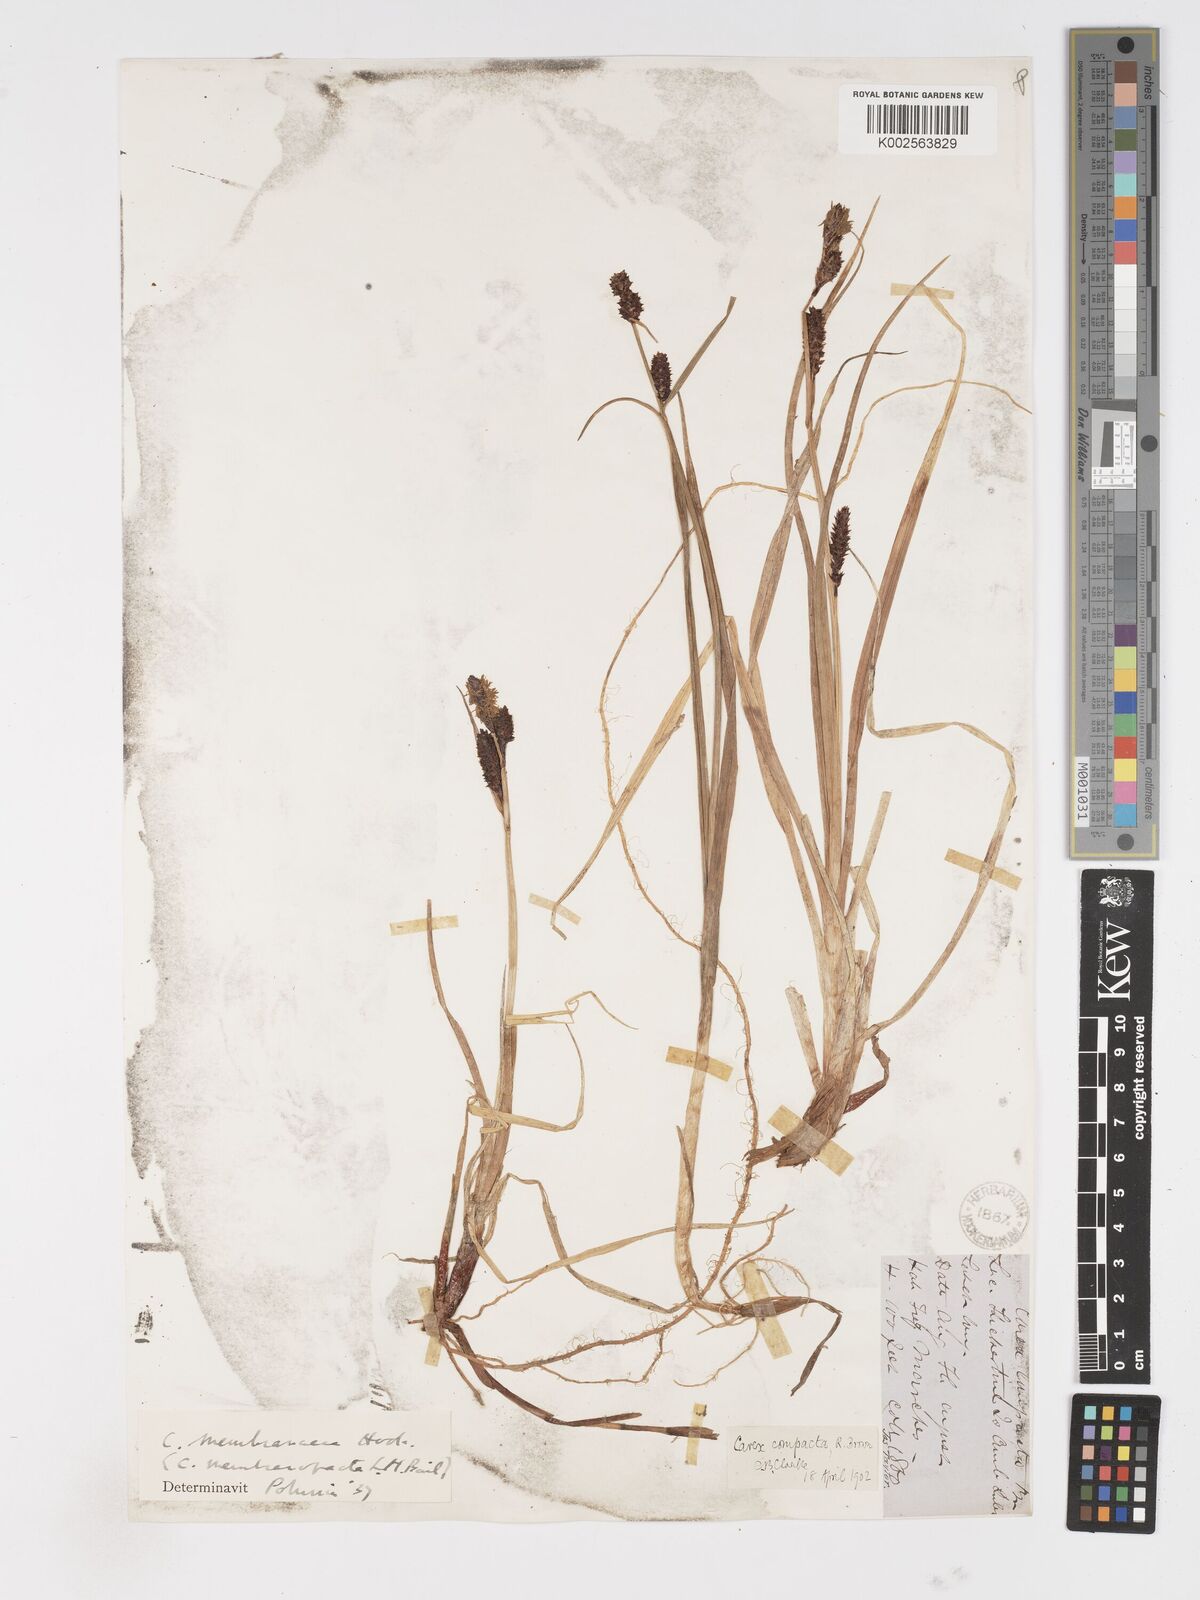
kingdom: Plantae
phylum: Tracheophyta
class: Liliopsida
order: Poales
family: Cyperaceae
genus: Carex
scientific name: Carex membranacea
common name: Fragile sedge
